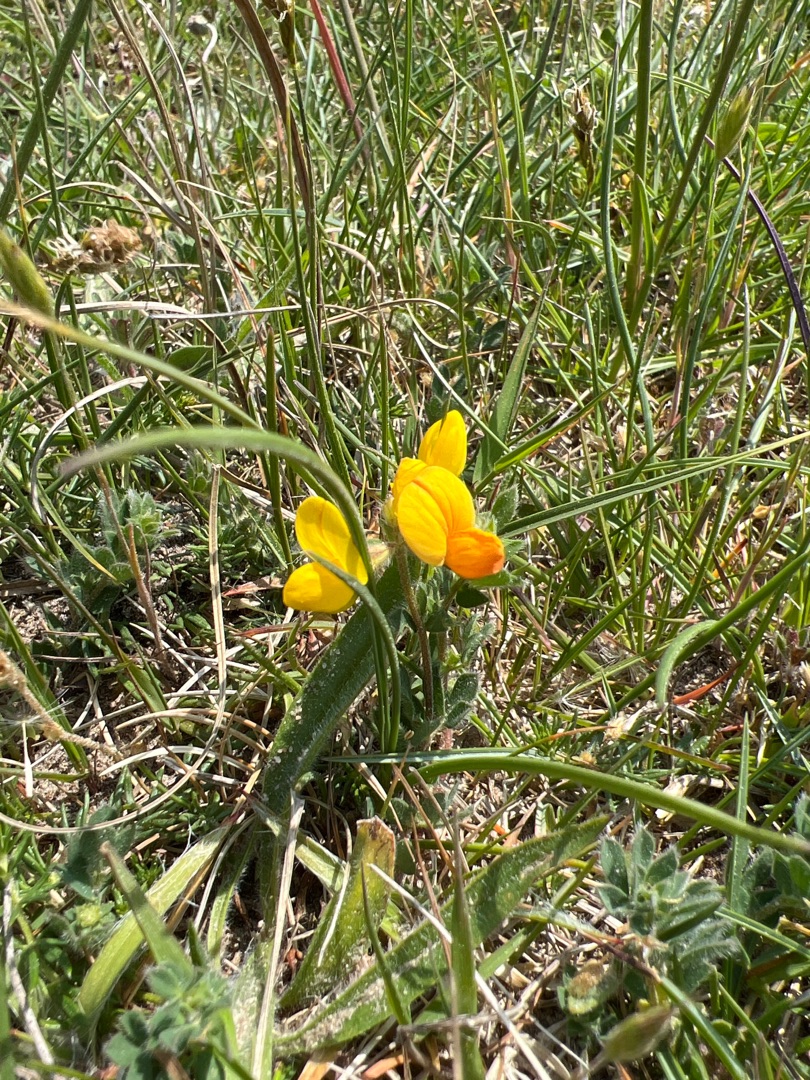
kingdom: Plantae
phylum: Tracheophyta
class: Magnoliopsida
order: Fabales
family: Fabaceae
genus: Lotus
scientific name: Lotus corniculatus
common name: Almindelig kællingetand
